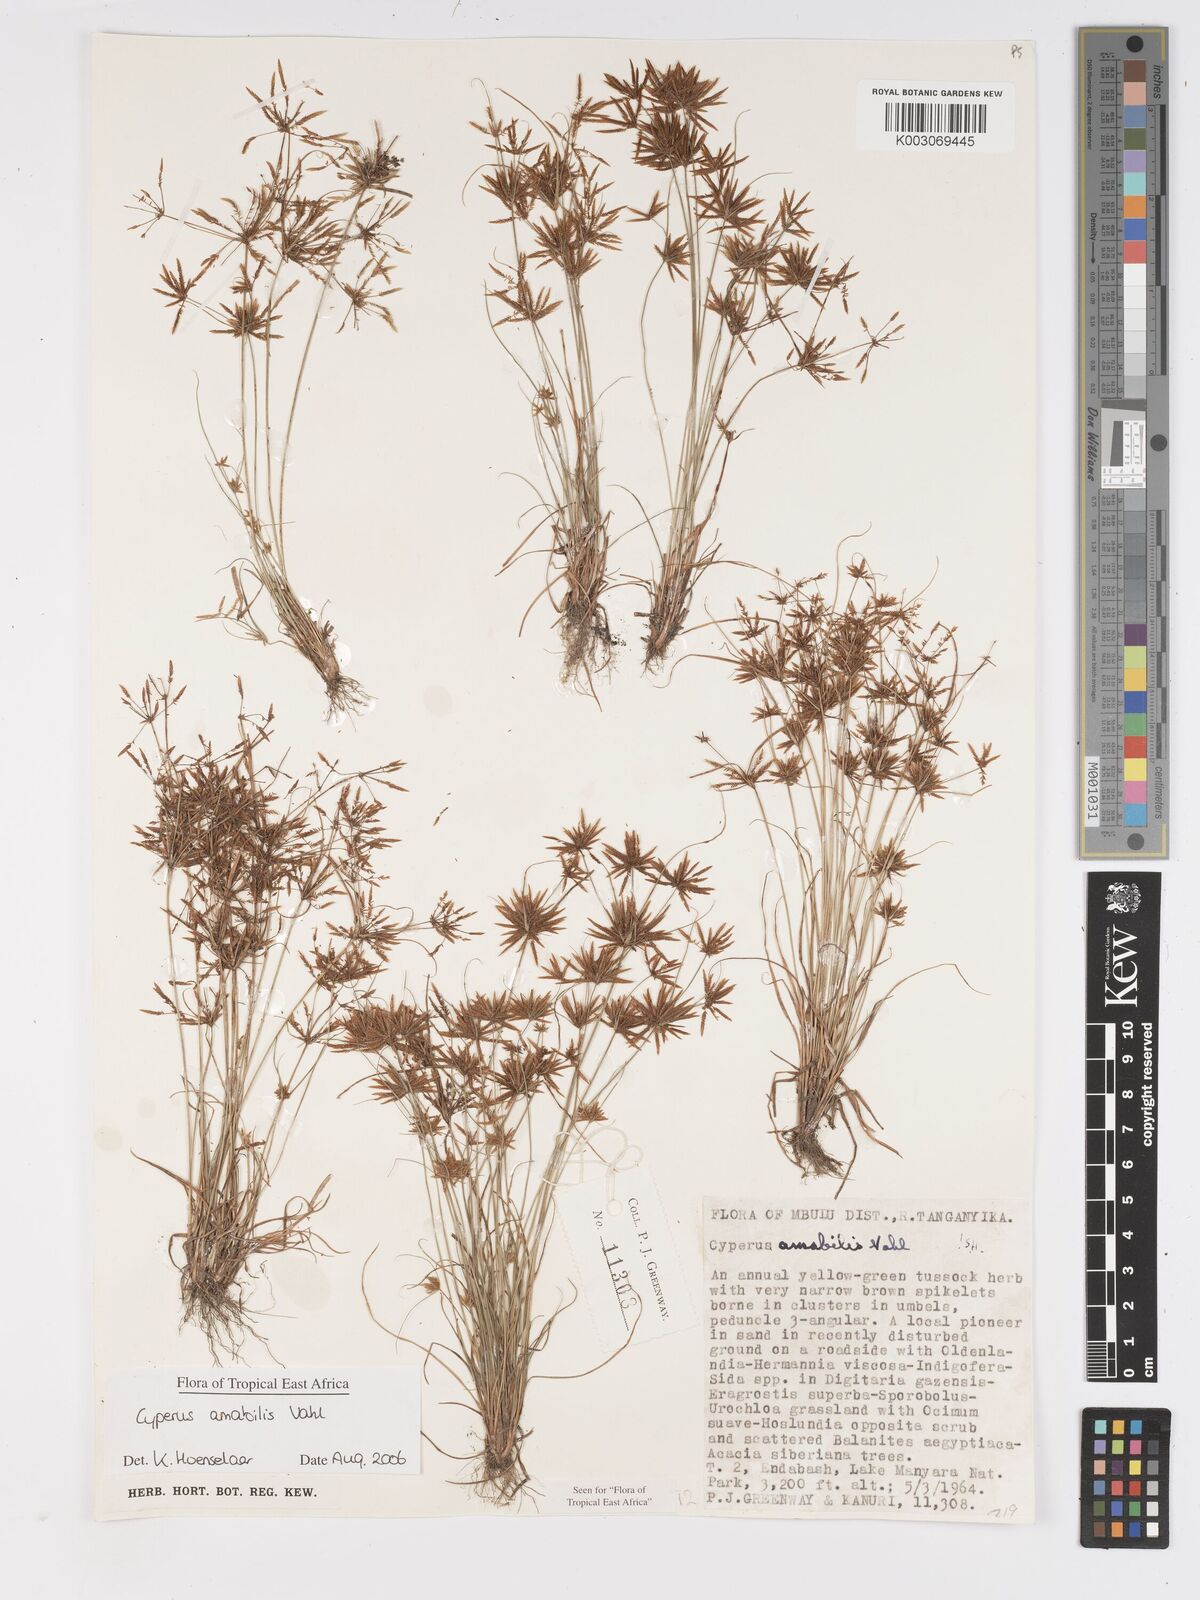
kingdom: Plantae
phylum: Tracheophyta
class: Liliopsida
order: Poales
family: Cyperaceae
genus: Cyperus
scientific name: Cyperus amabilis
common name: Foothill flat sedge
